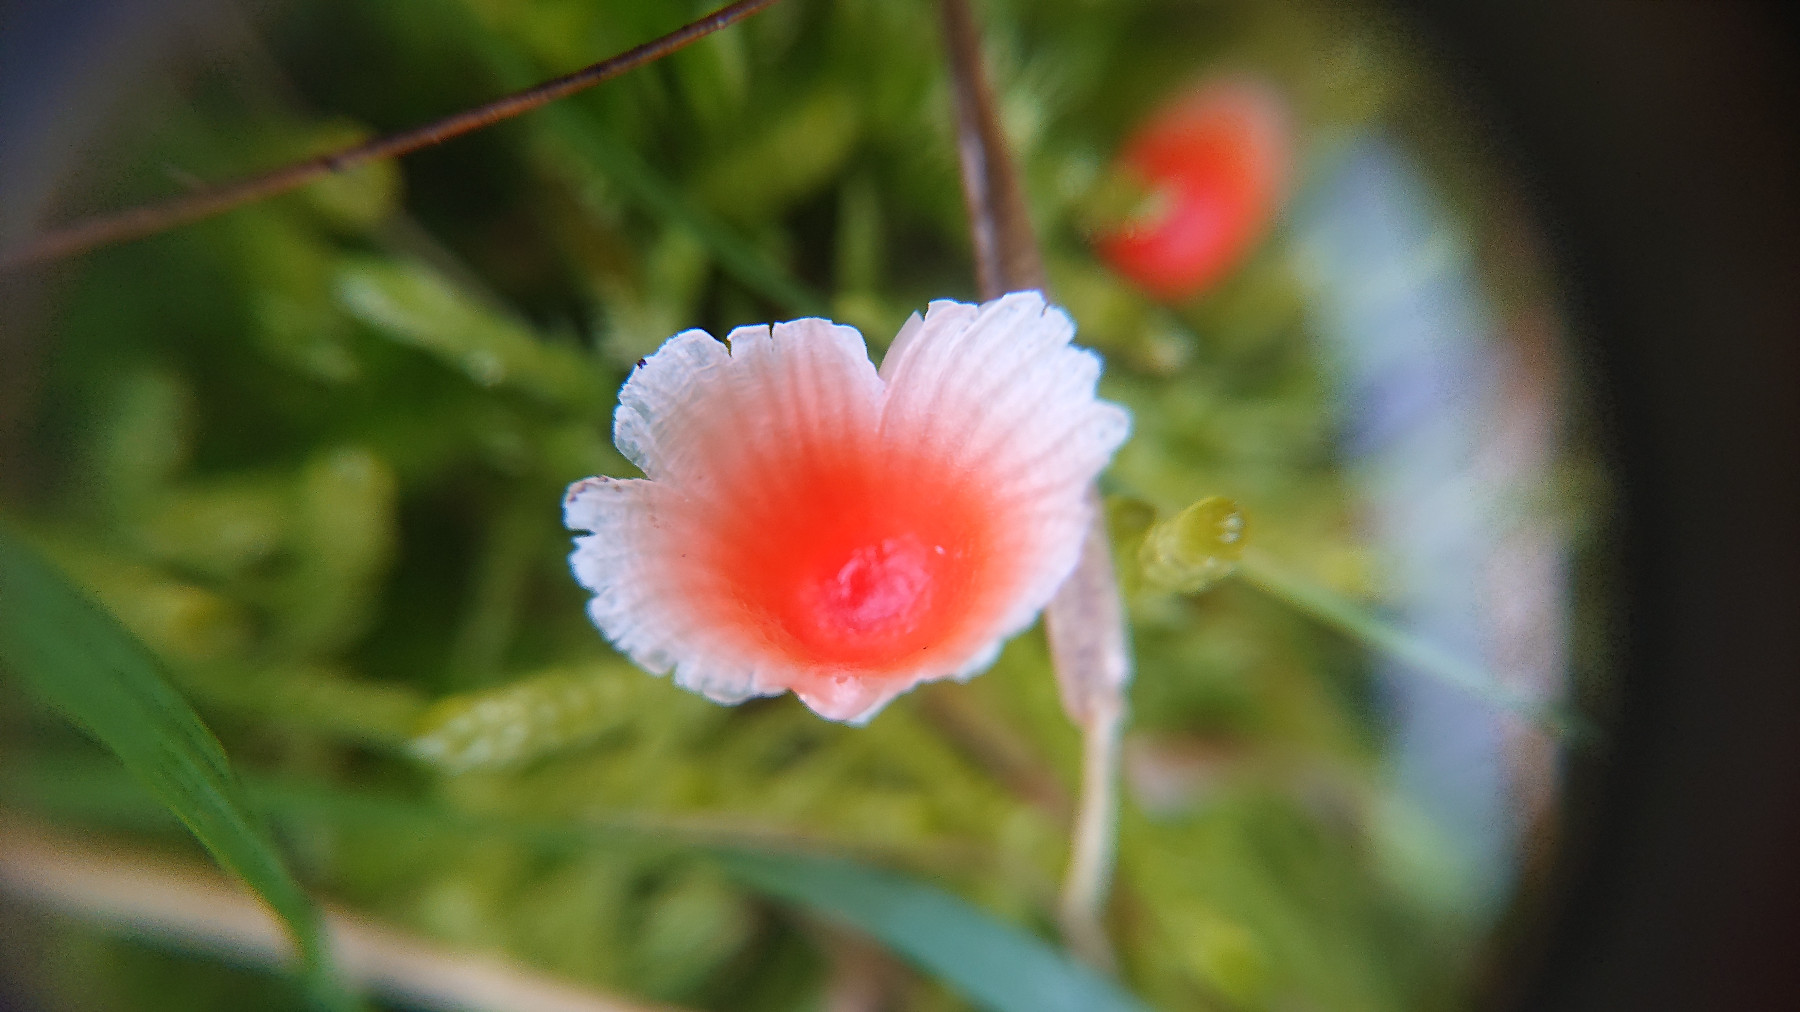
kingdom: Fungi
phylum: Basidiomycota
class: Agaricomycetes
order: Agaricales
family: Mycenaceae
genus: Atheniella
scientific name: Atheniella adonis
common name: rønnerød huesvamp
